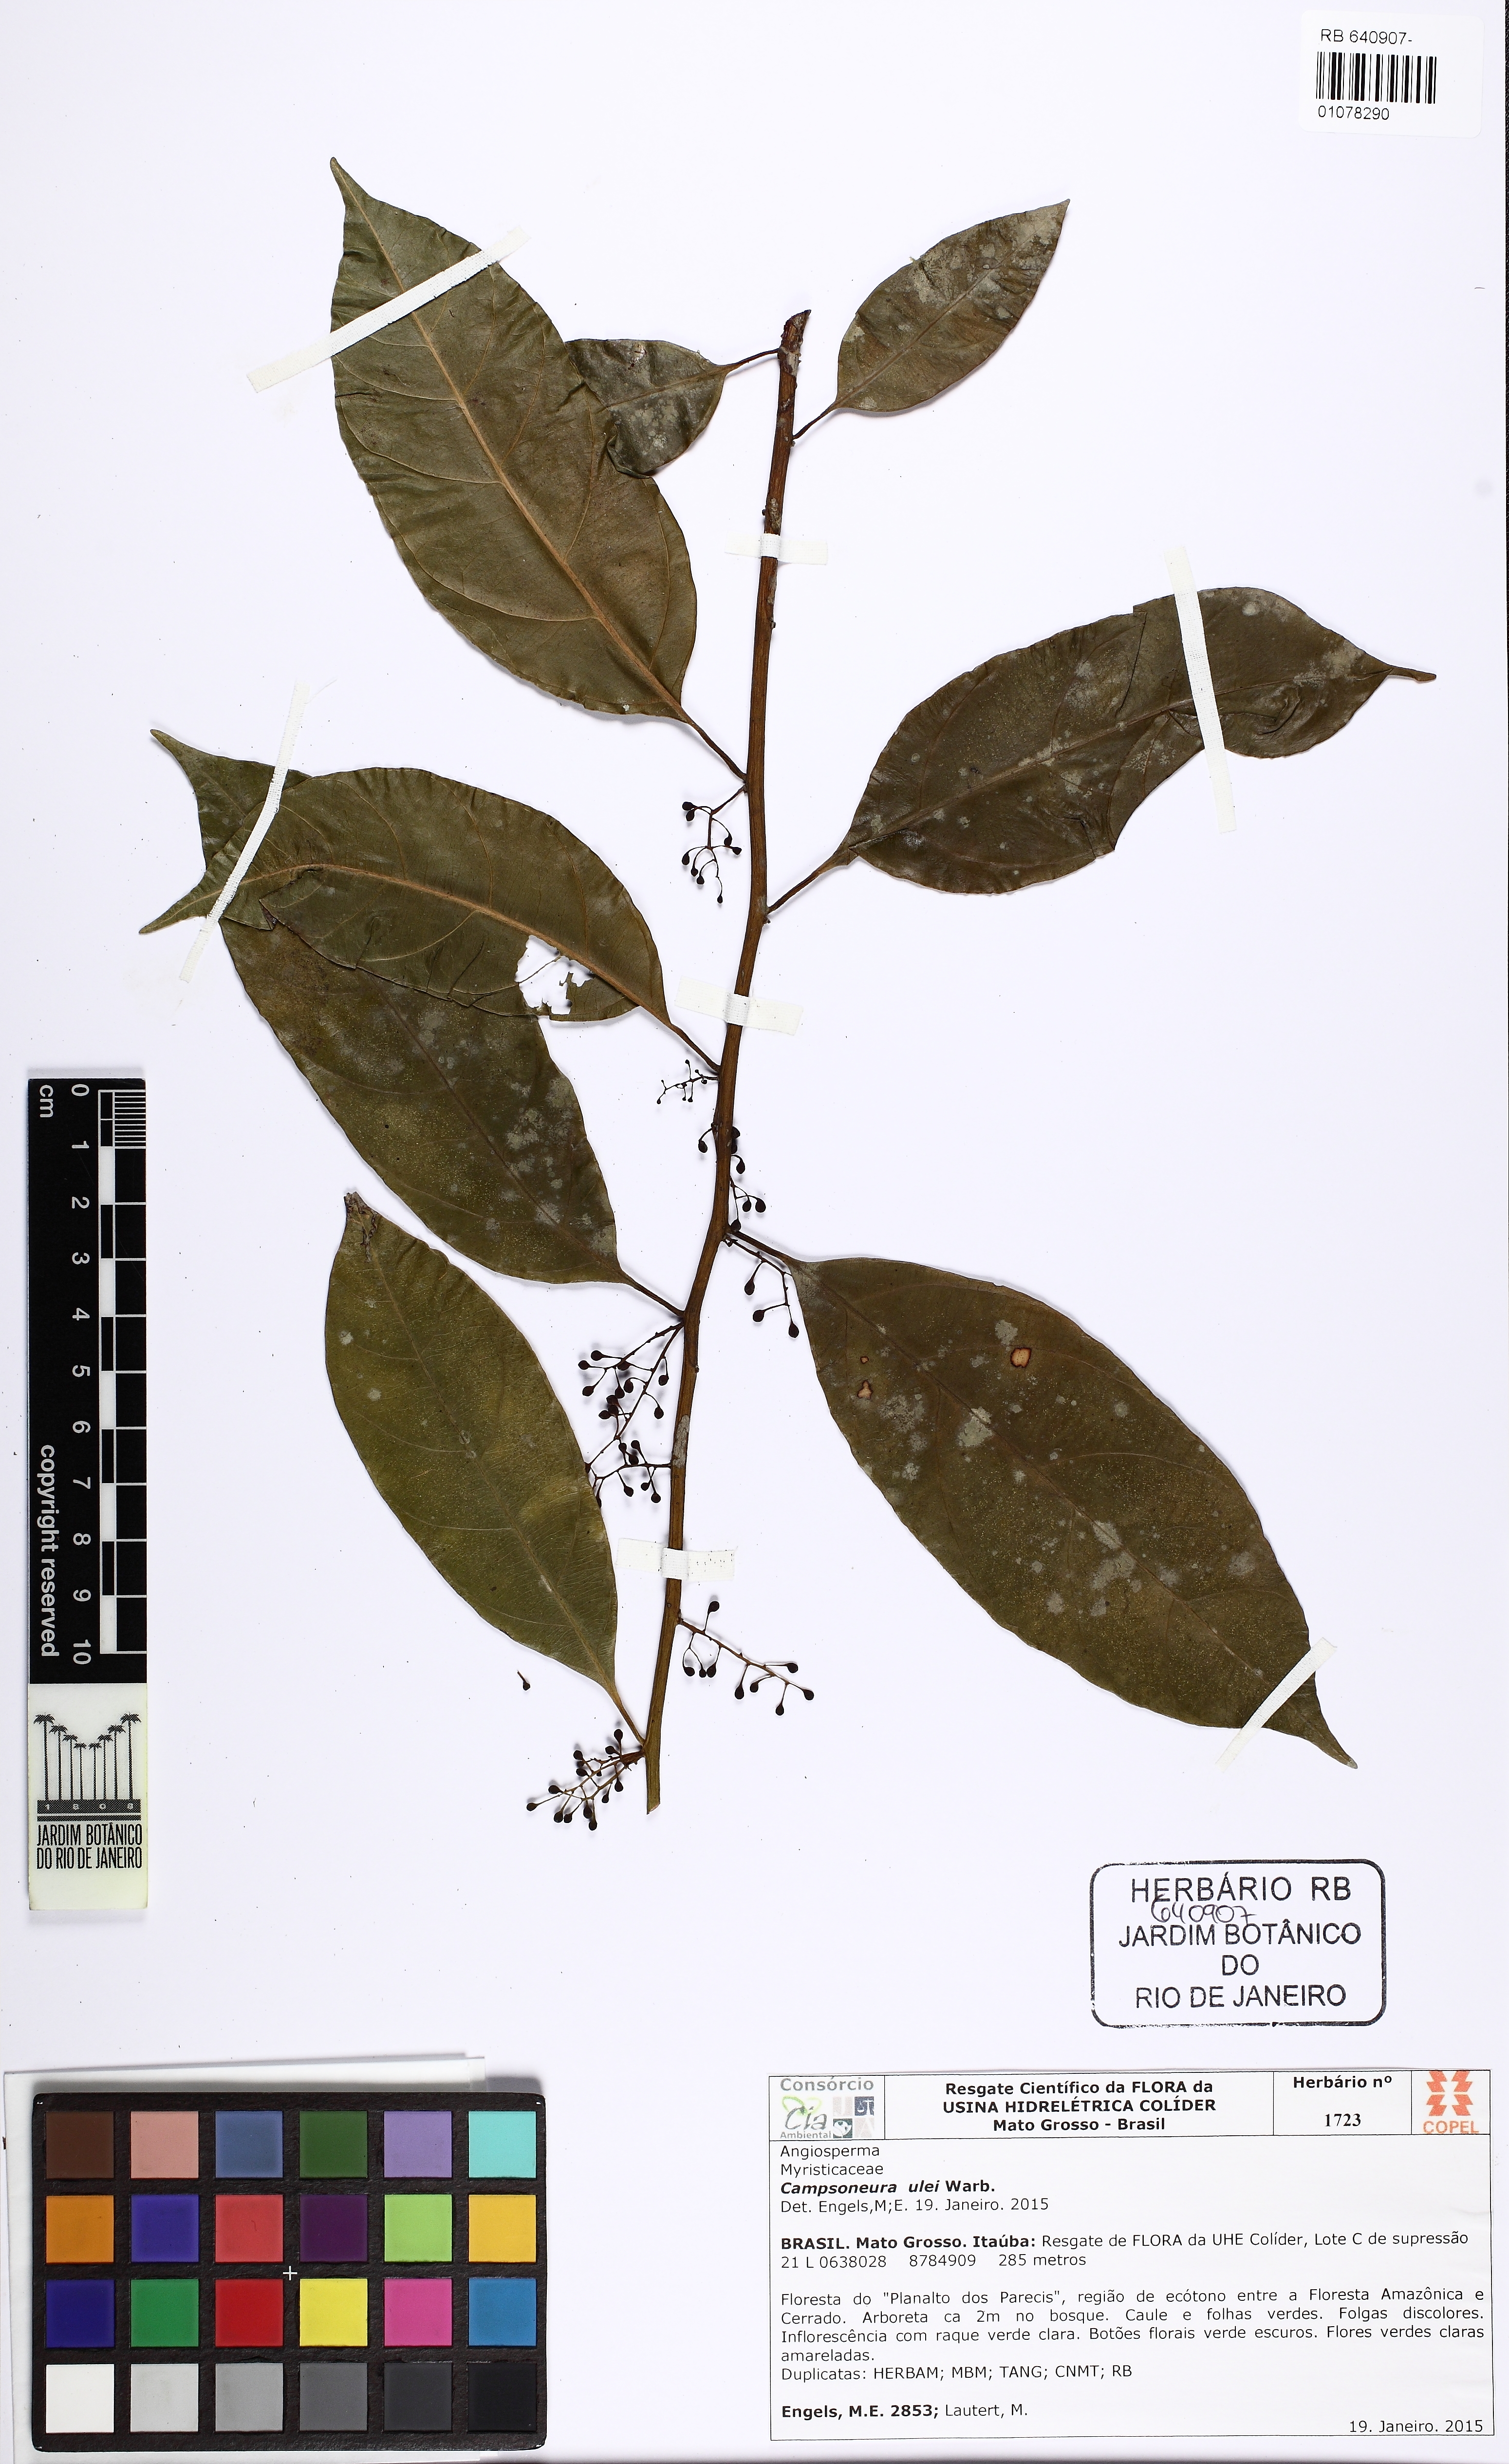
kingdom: Plantae
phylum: Tracheophyta
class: Magnoliopsida
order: Magnoliales
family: Myristicaceae
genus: Compsoneura
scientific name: Compsoneura ulei
